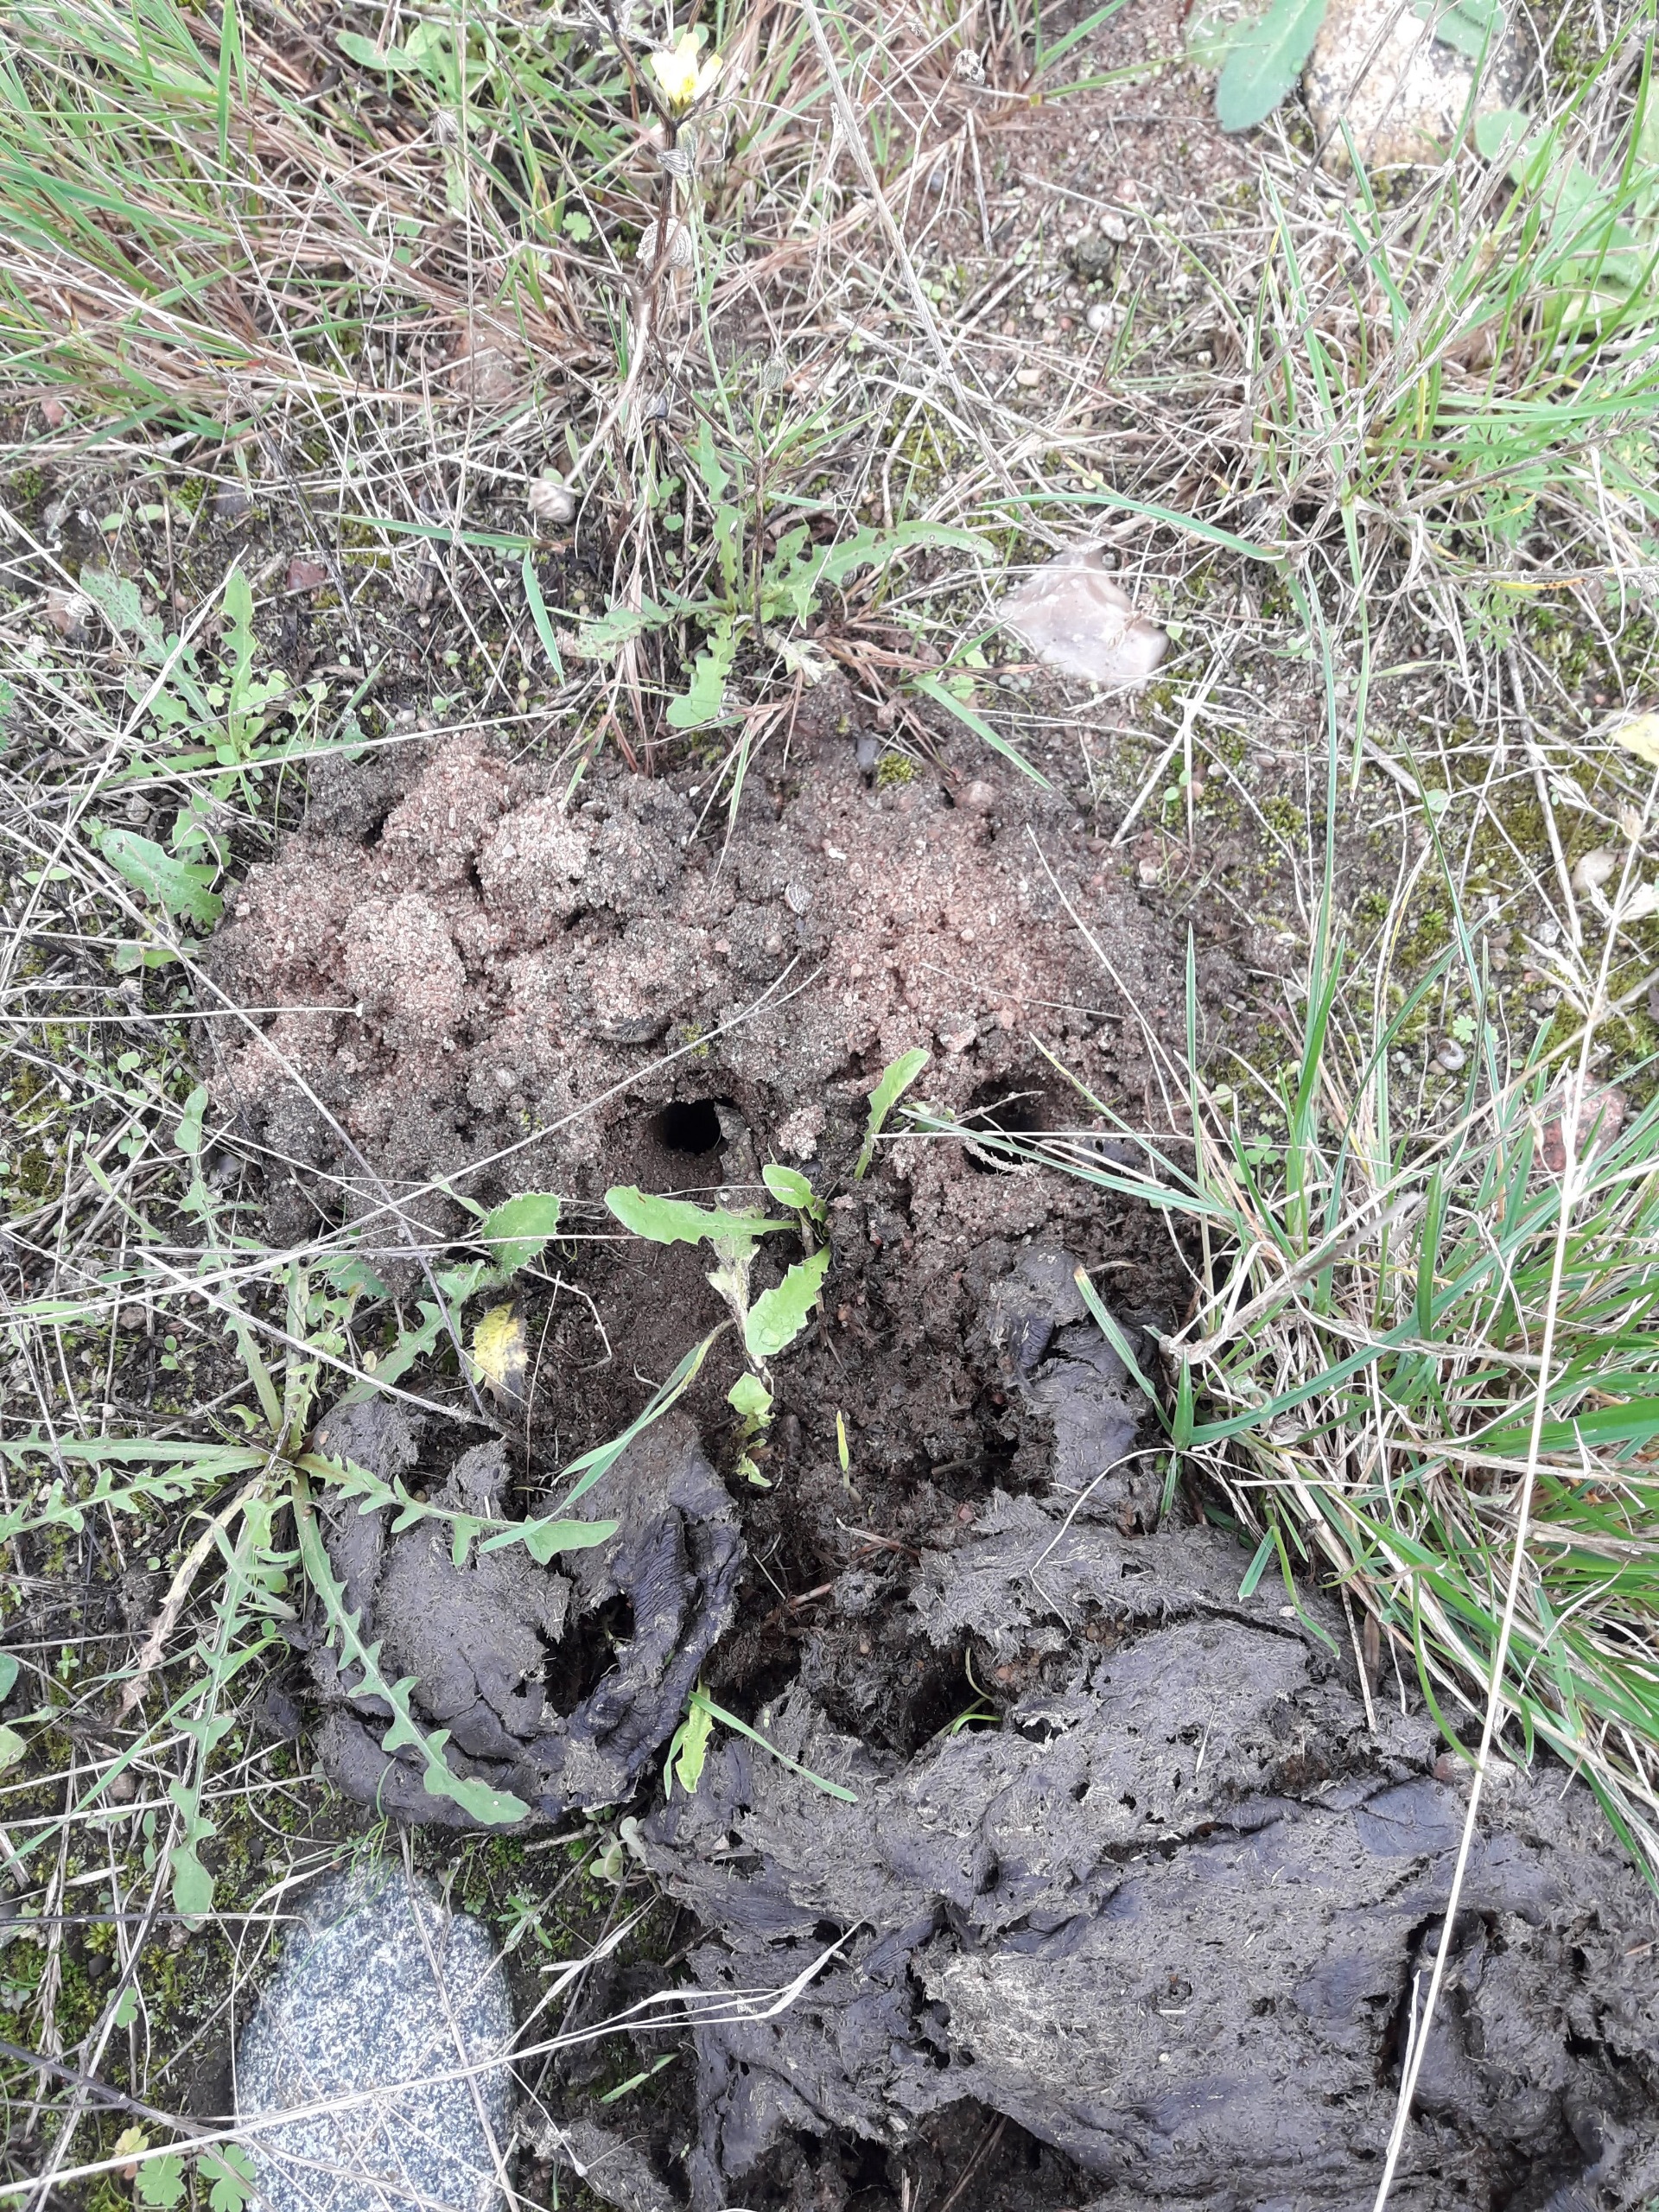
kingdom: Animalia
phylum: Arthropoda
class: Insecta
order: Coleoptera
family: Geotrupidae
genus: Geotrupes
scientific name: Geotrupes
